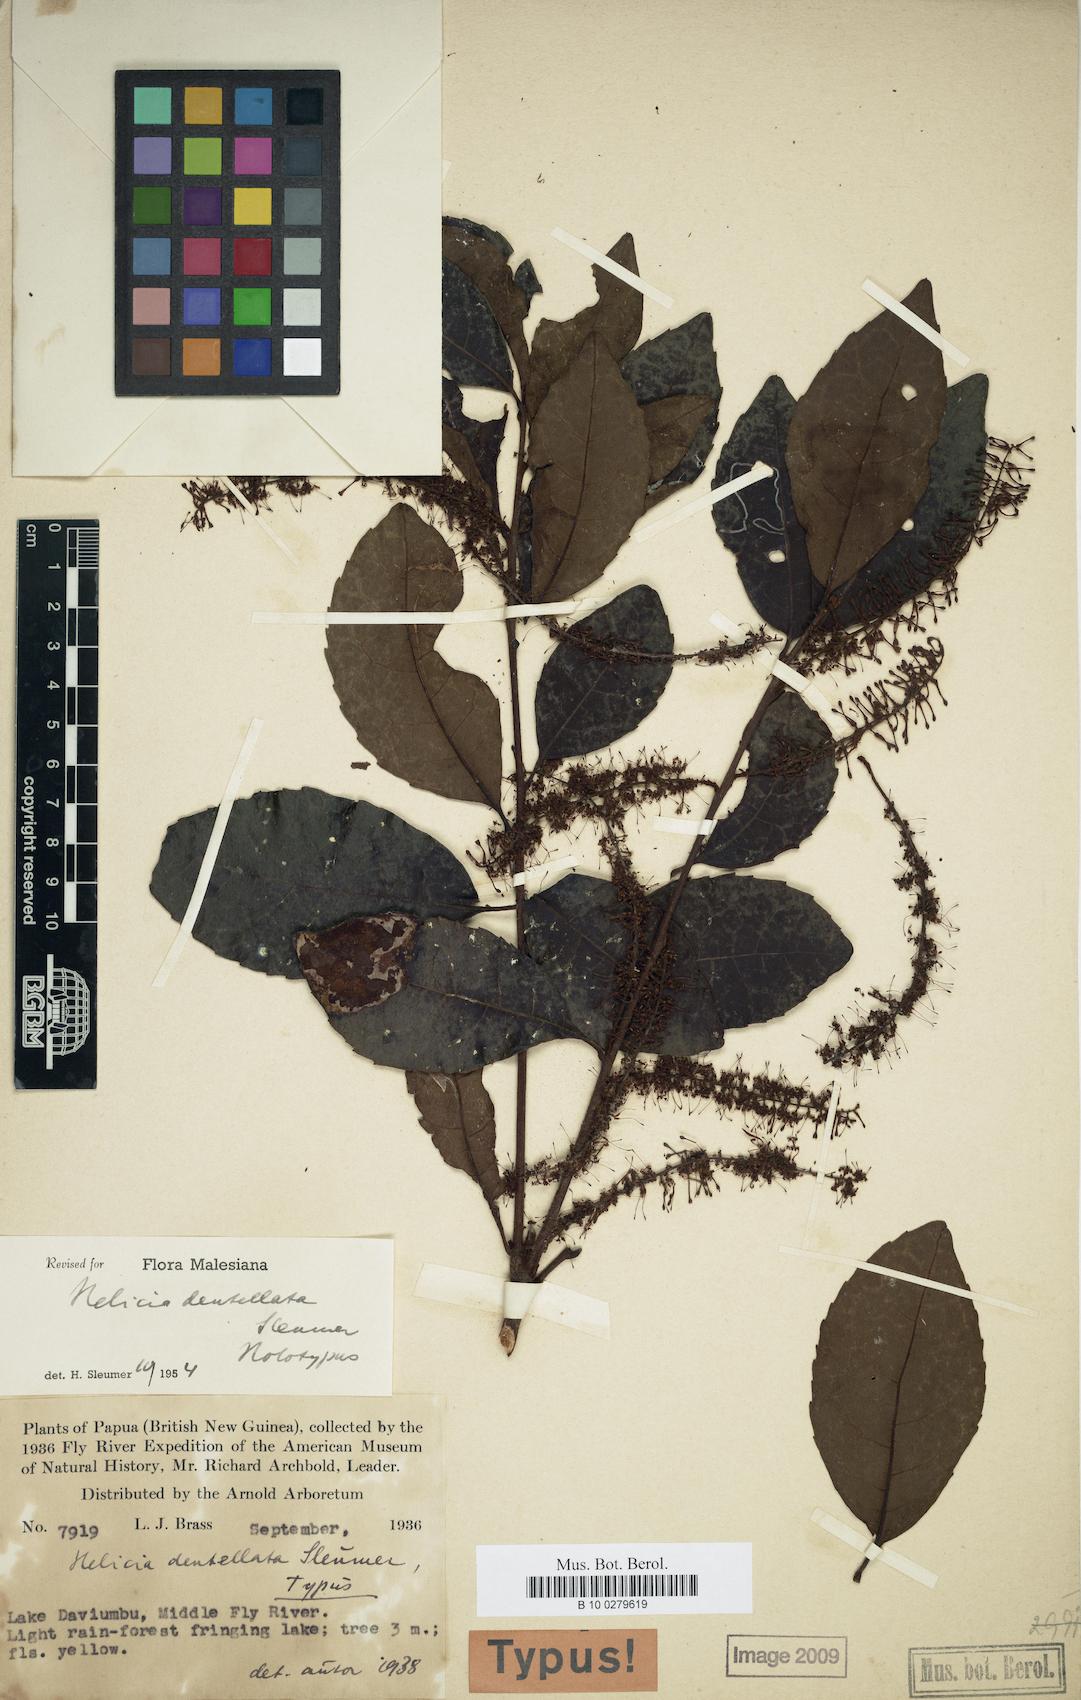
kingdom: Plantae
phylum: Tracheophyta
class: Magnoliopsida
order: Proteales
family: Proteaceae
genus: Helicia
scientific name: Helicia australasica
